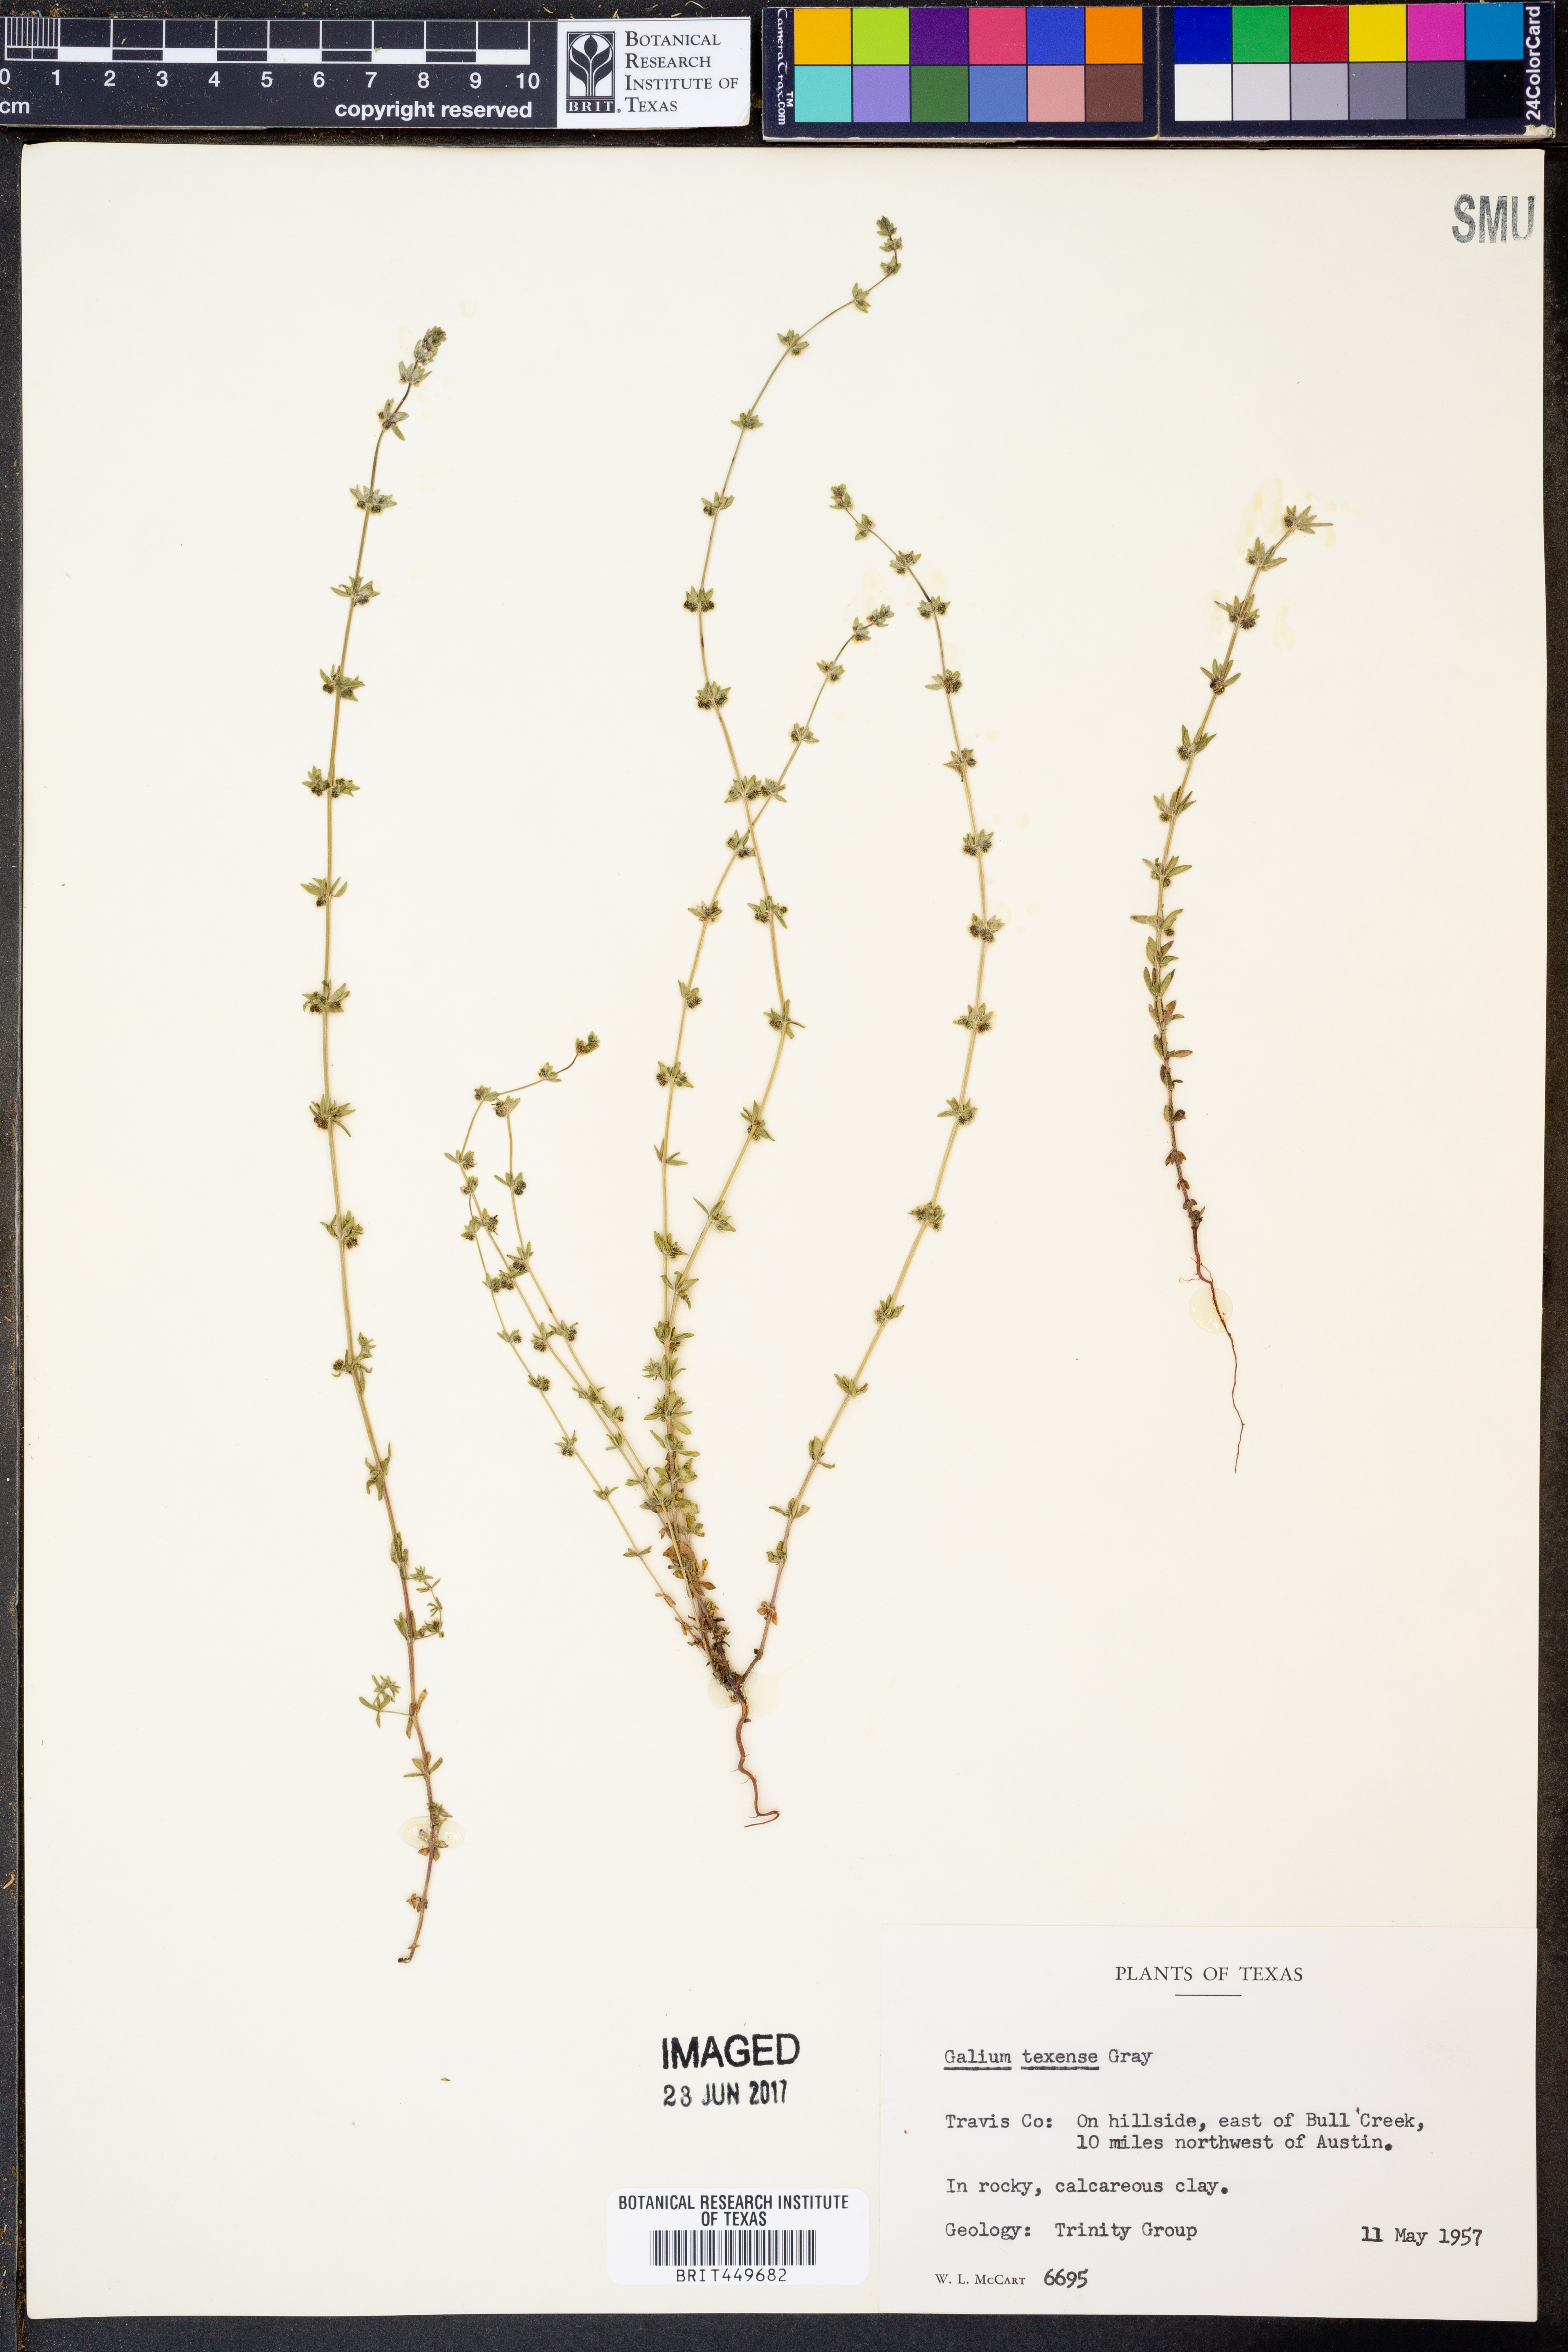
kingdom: Plantae
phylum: Tracheophyta
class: Magnoliopsida
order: Gentianales
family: Rubiaceae
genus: Galium
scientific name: Galium texense
